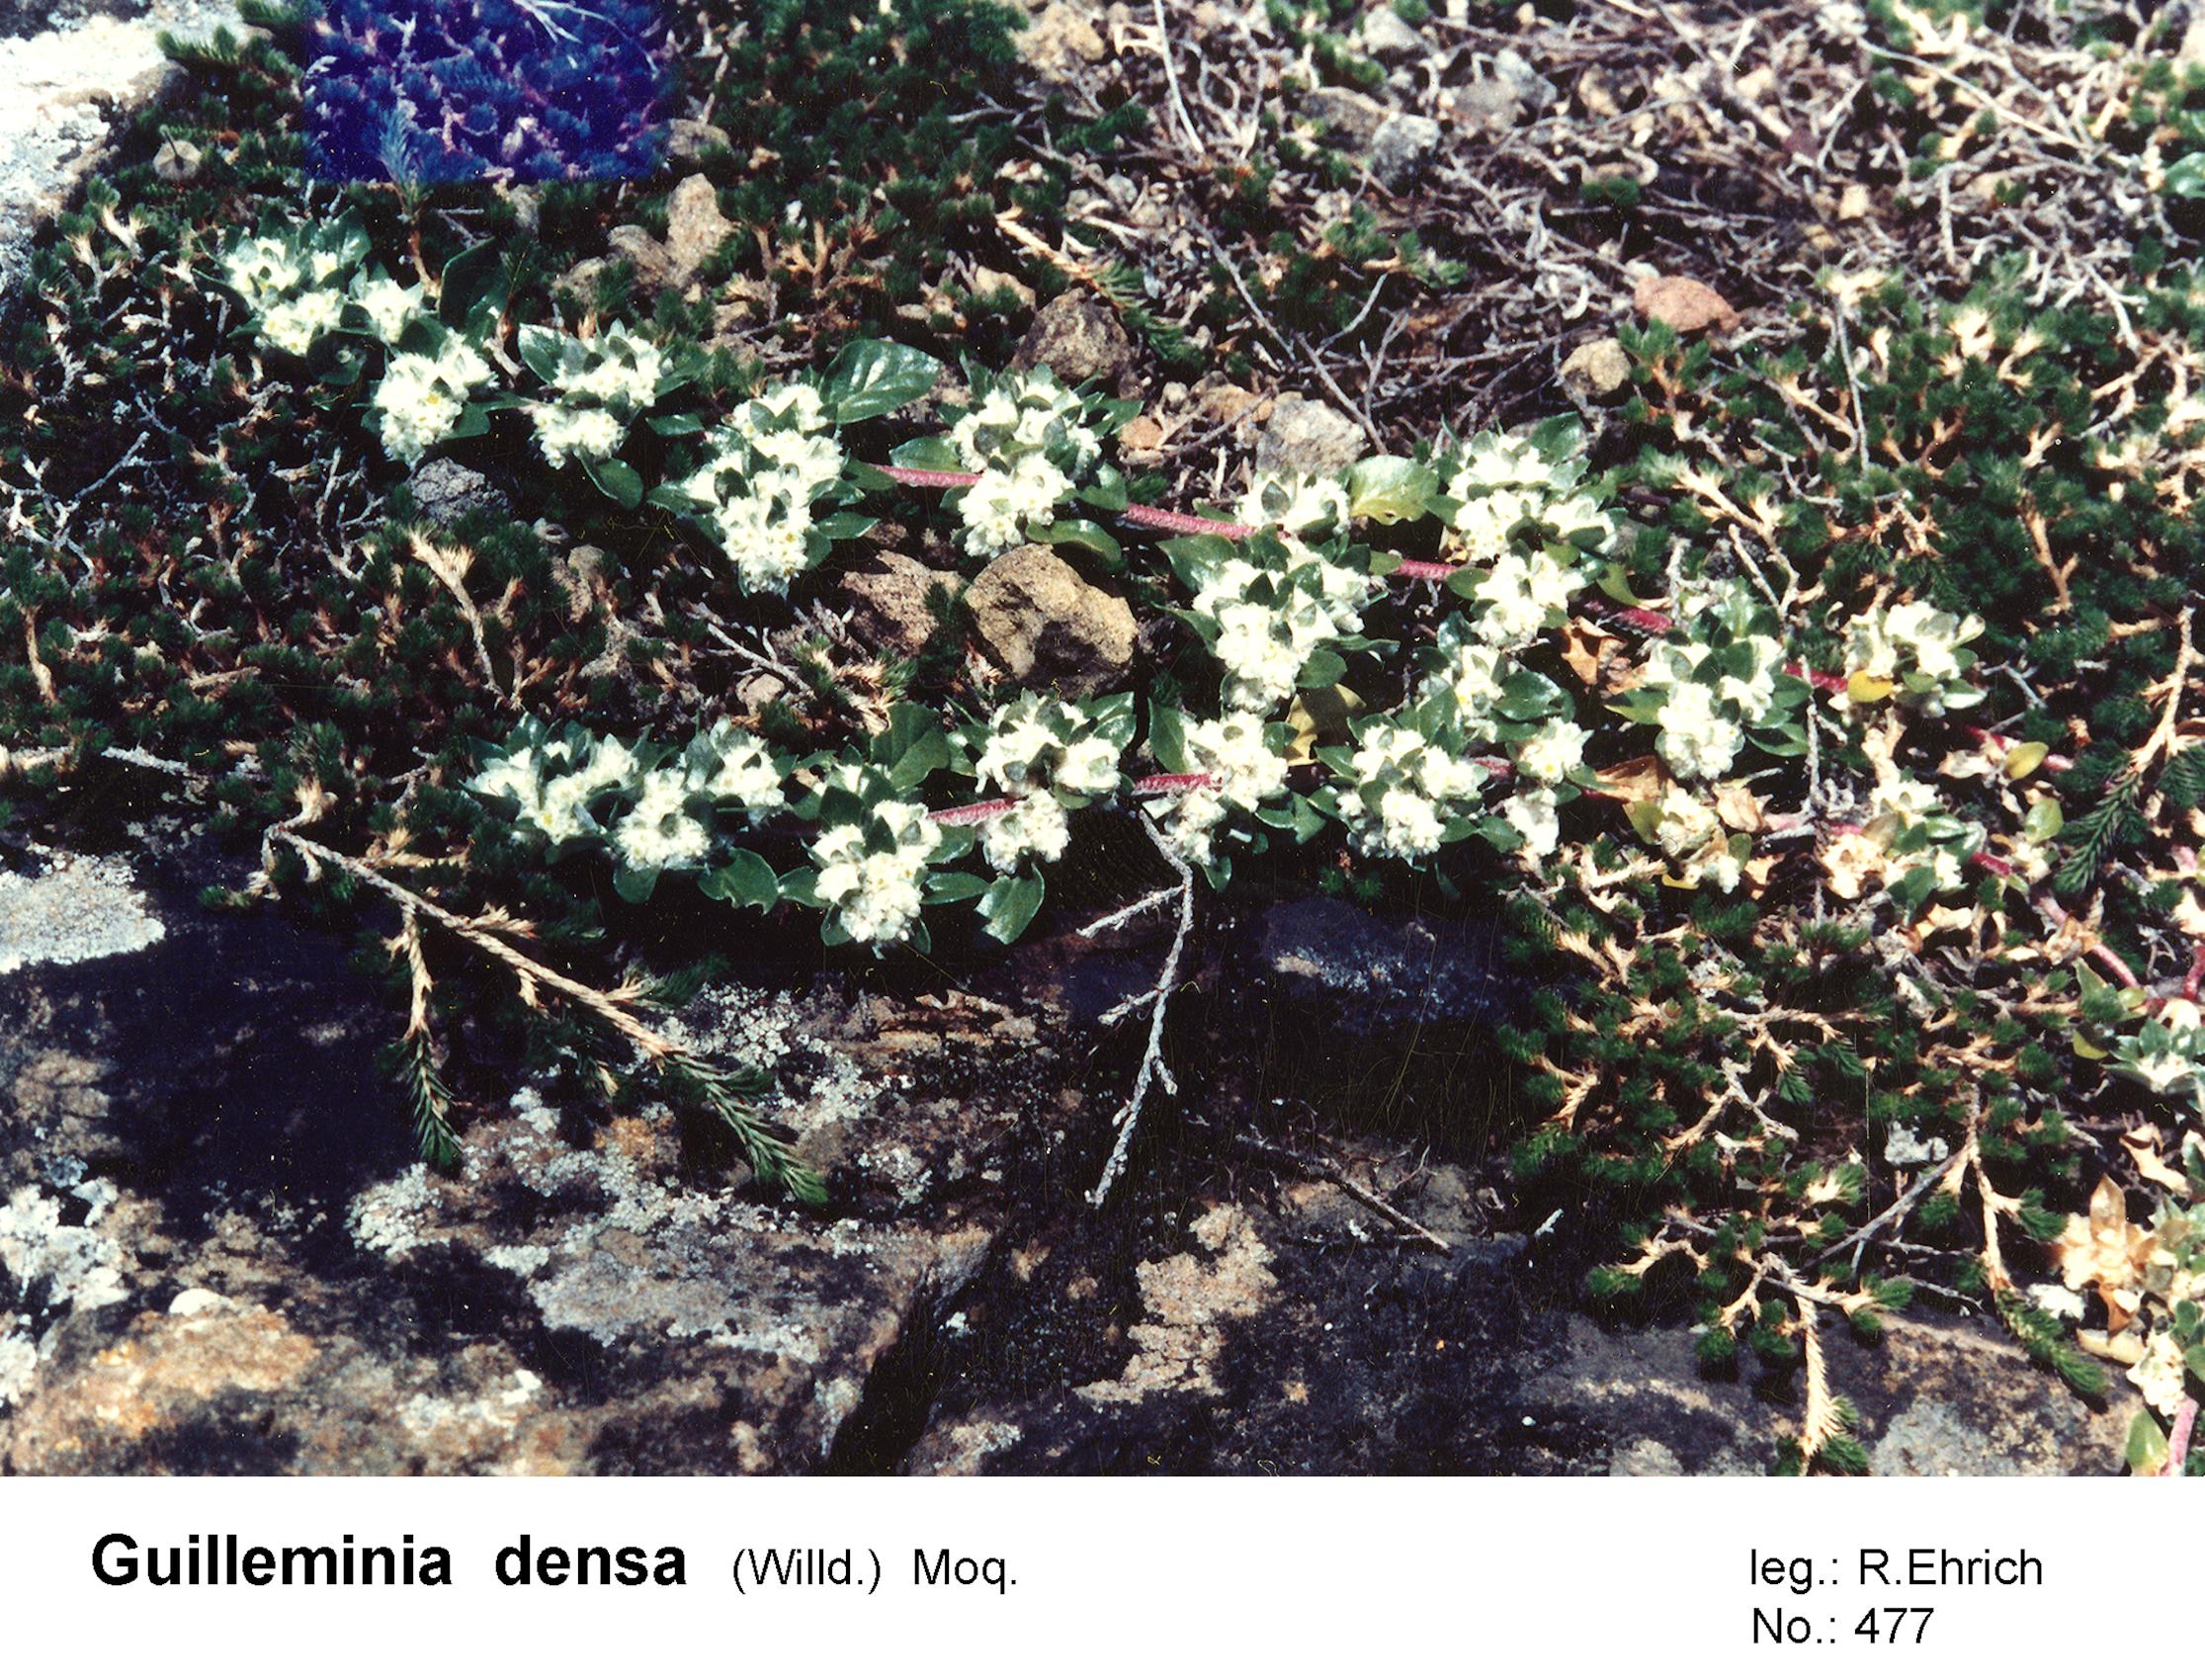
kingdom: Plantae
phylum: Tracheophyta
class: Magnoliopsida
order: Caryophyllales
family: Amaranthaceae
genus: Guilleminea
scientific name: Guilleminea densa
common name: Small matweed
